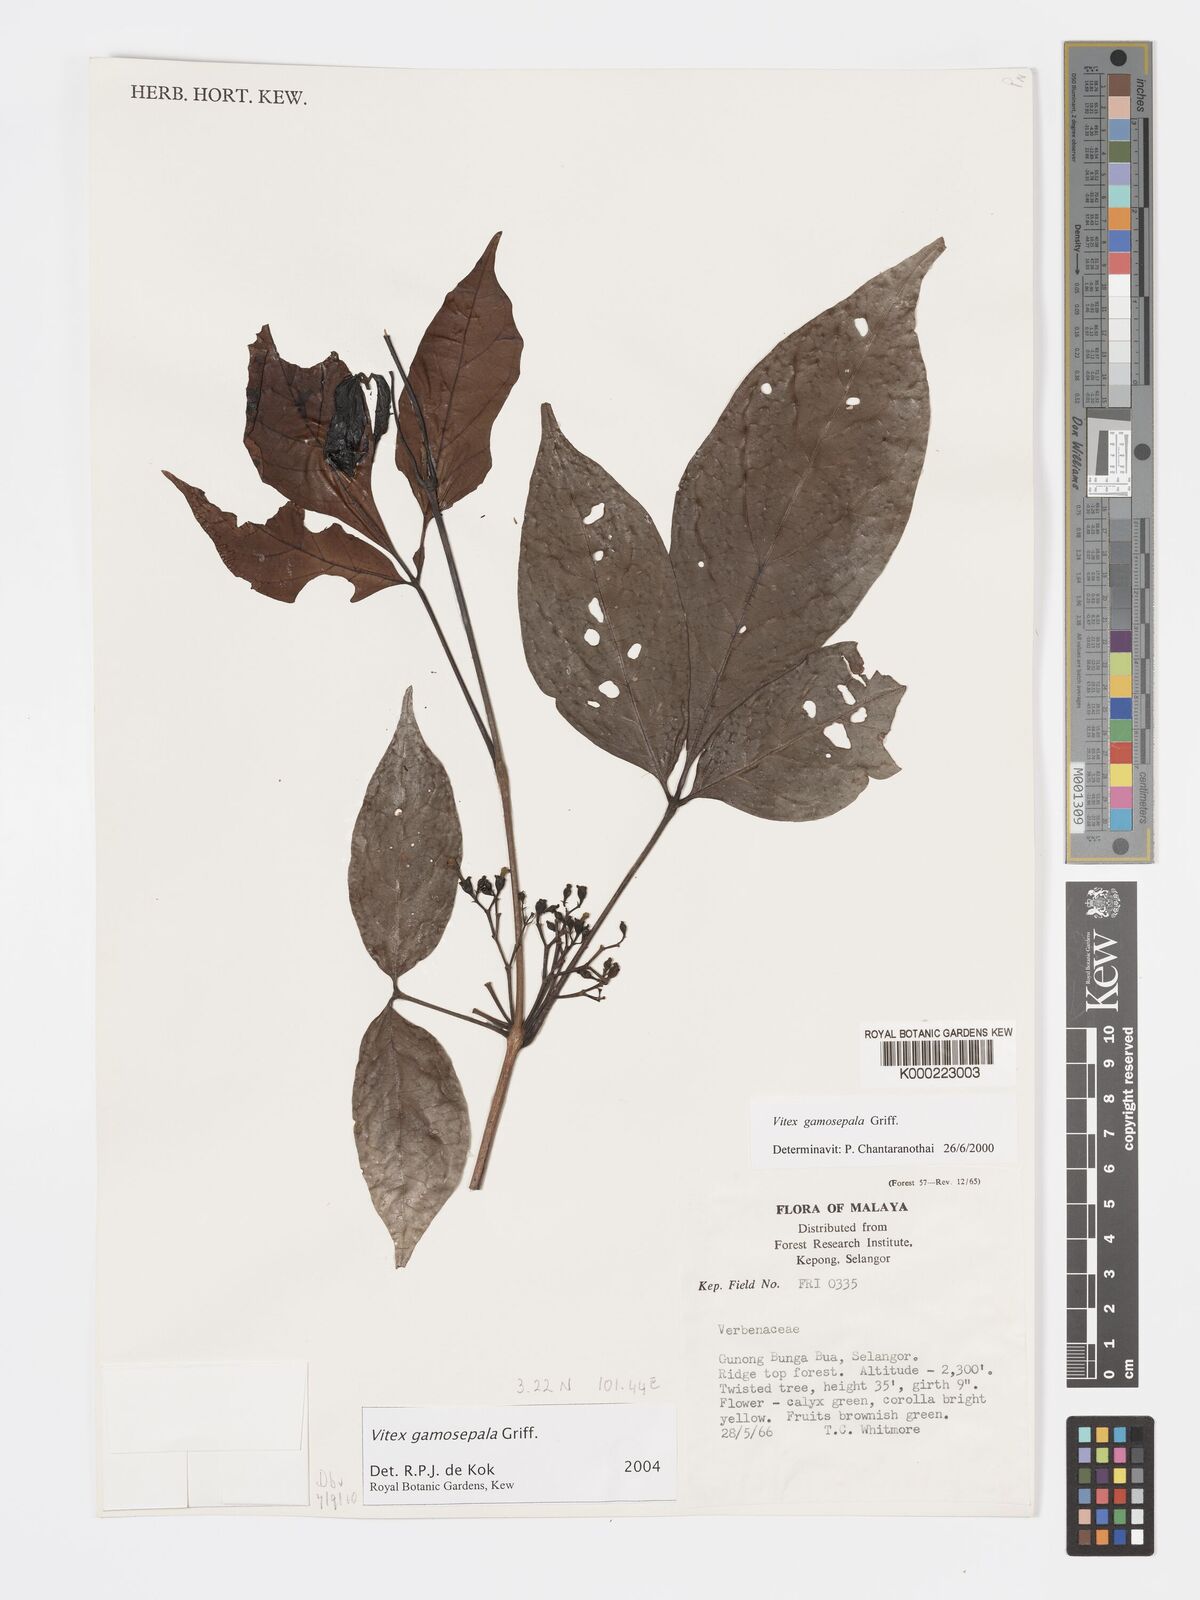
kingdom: Plantae
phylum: Tracheophyta
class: Magnoliopsida
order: Lamiales
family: Lamiaceae
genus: Vitex
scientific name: Vitex gamosepala
